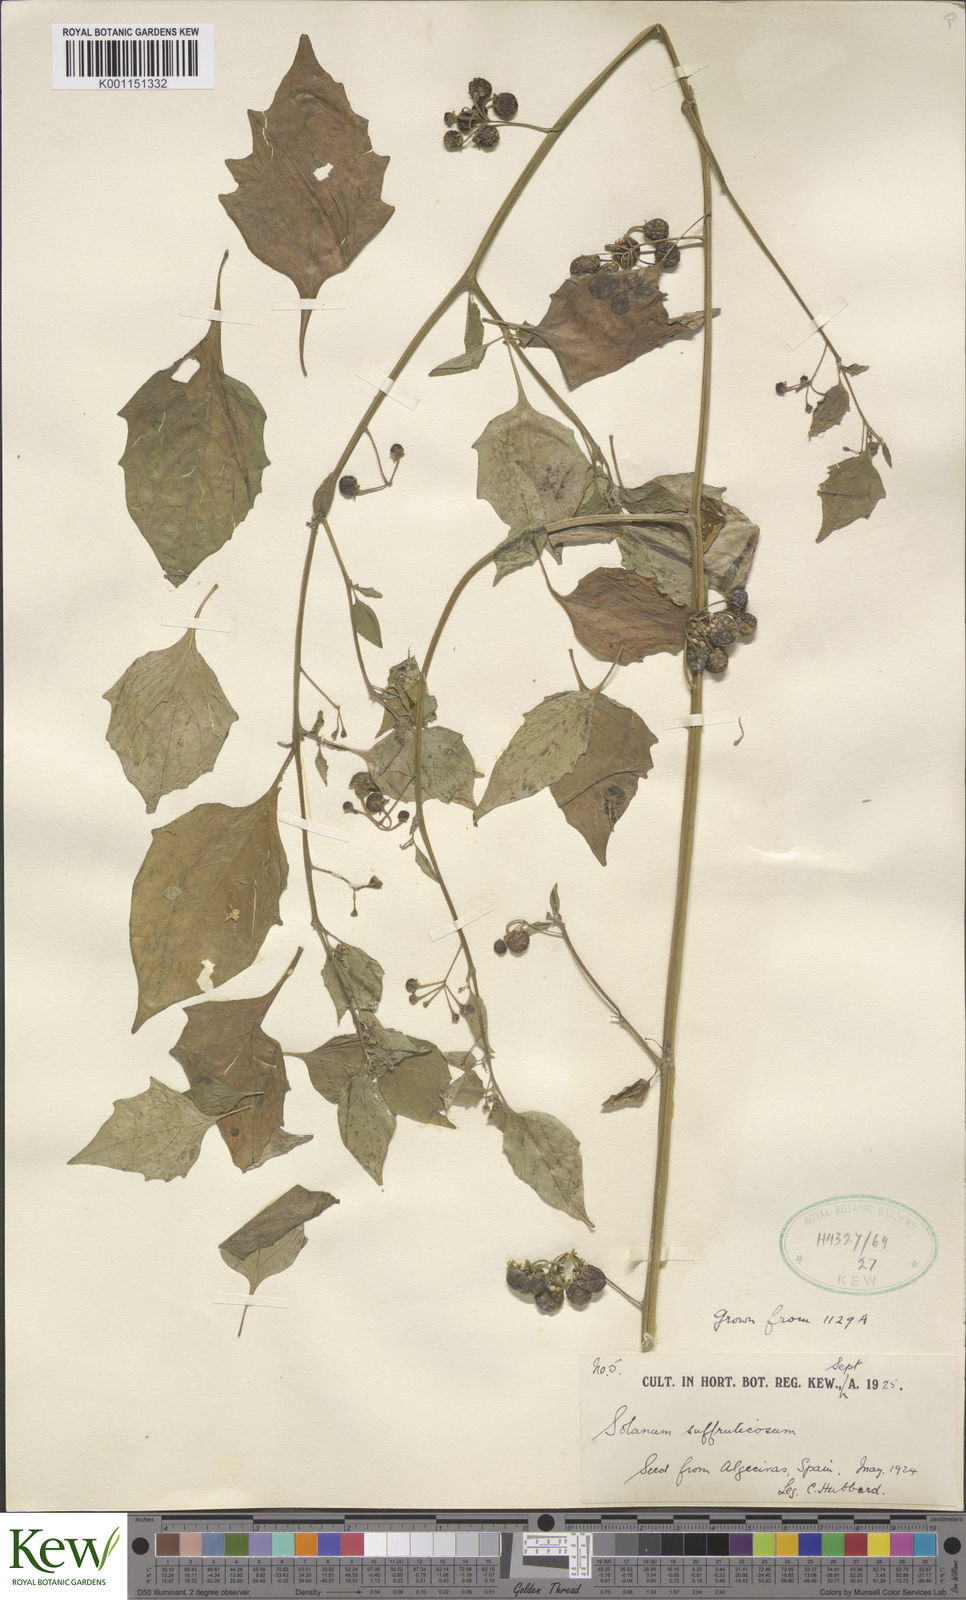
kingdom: Plantae
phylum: Tracheophyta
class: Magnoliopsida
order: Solanales
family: Solanaceae
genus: Solanum
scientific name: Solanum nigrum
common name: Black nightshade
